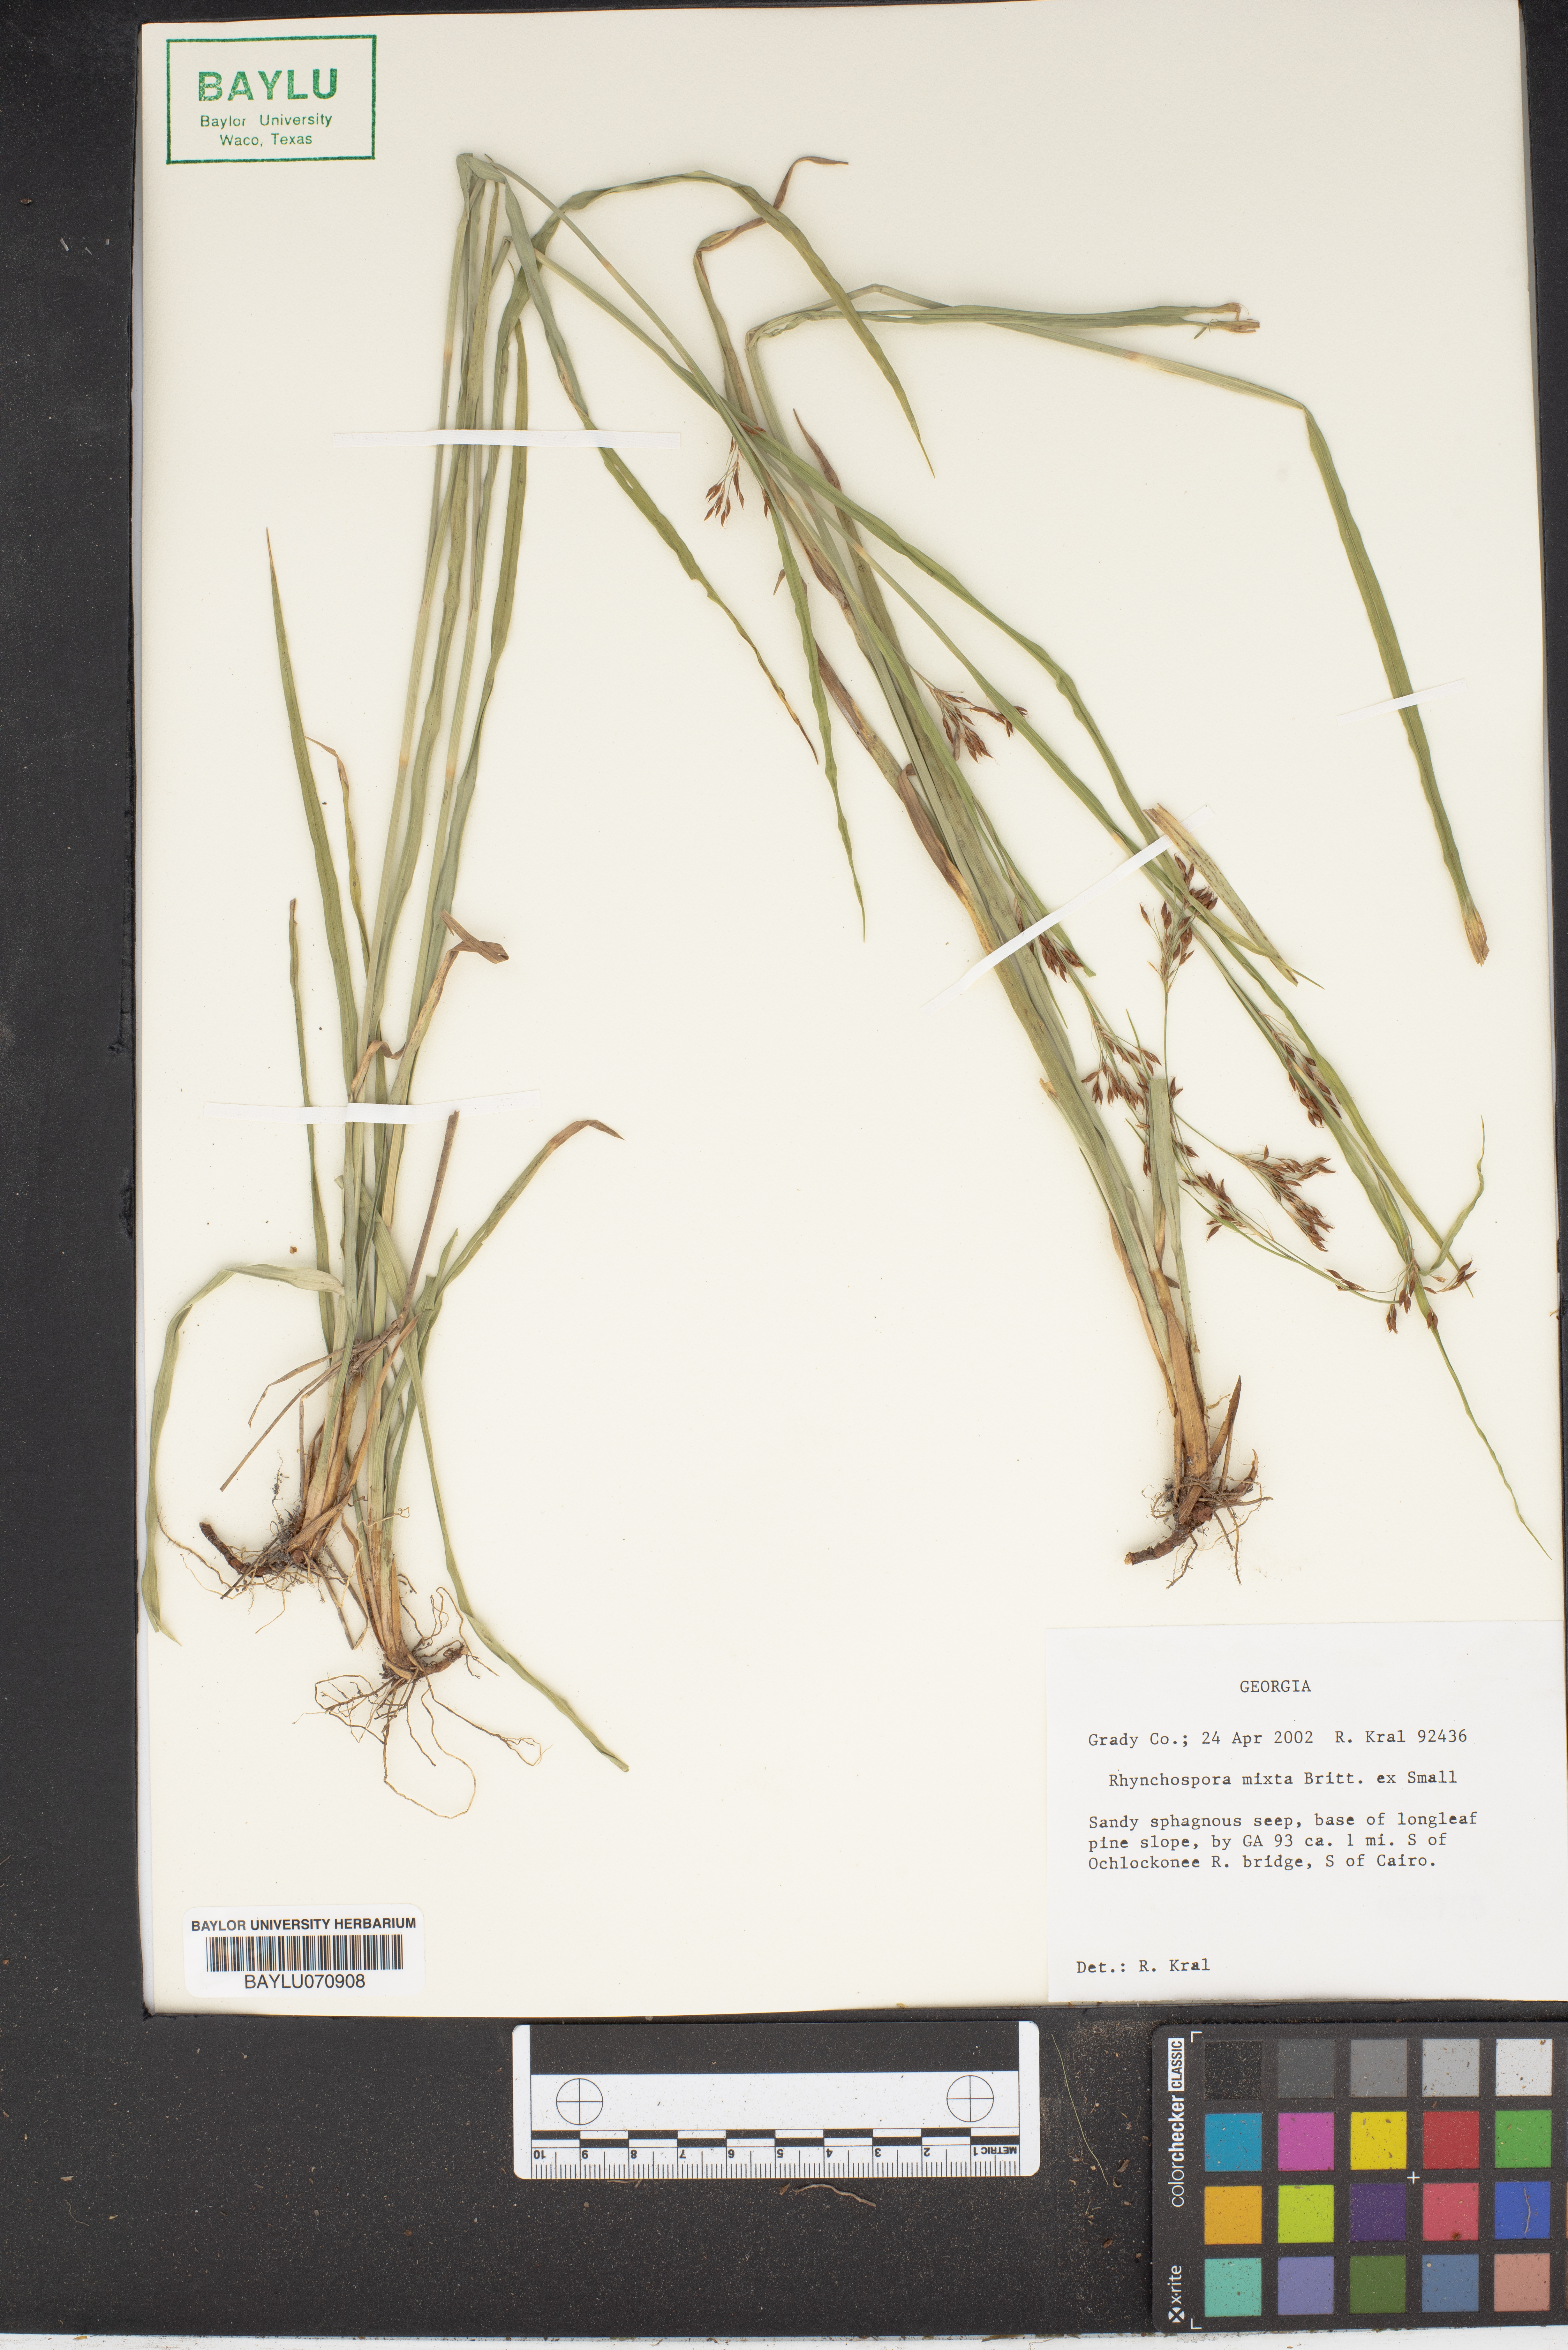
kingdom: Plantae
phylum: Tracheophyta
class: Liliopsida
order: Poales
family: Cyperaceae
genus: Rhynchospora
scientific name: Rhynchospora mixta
